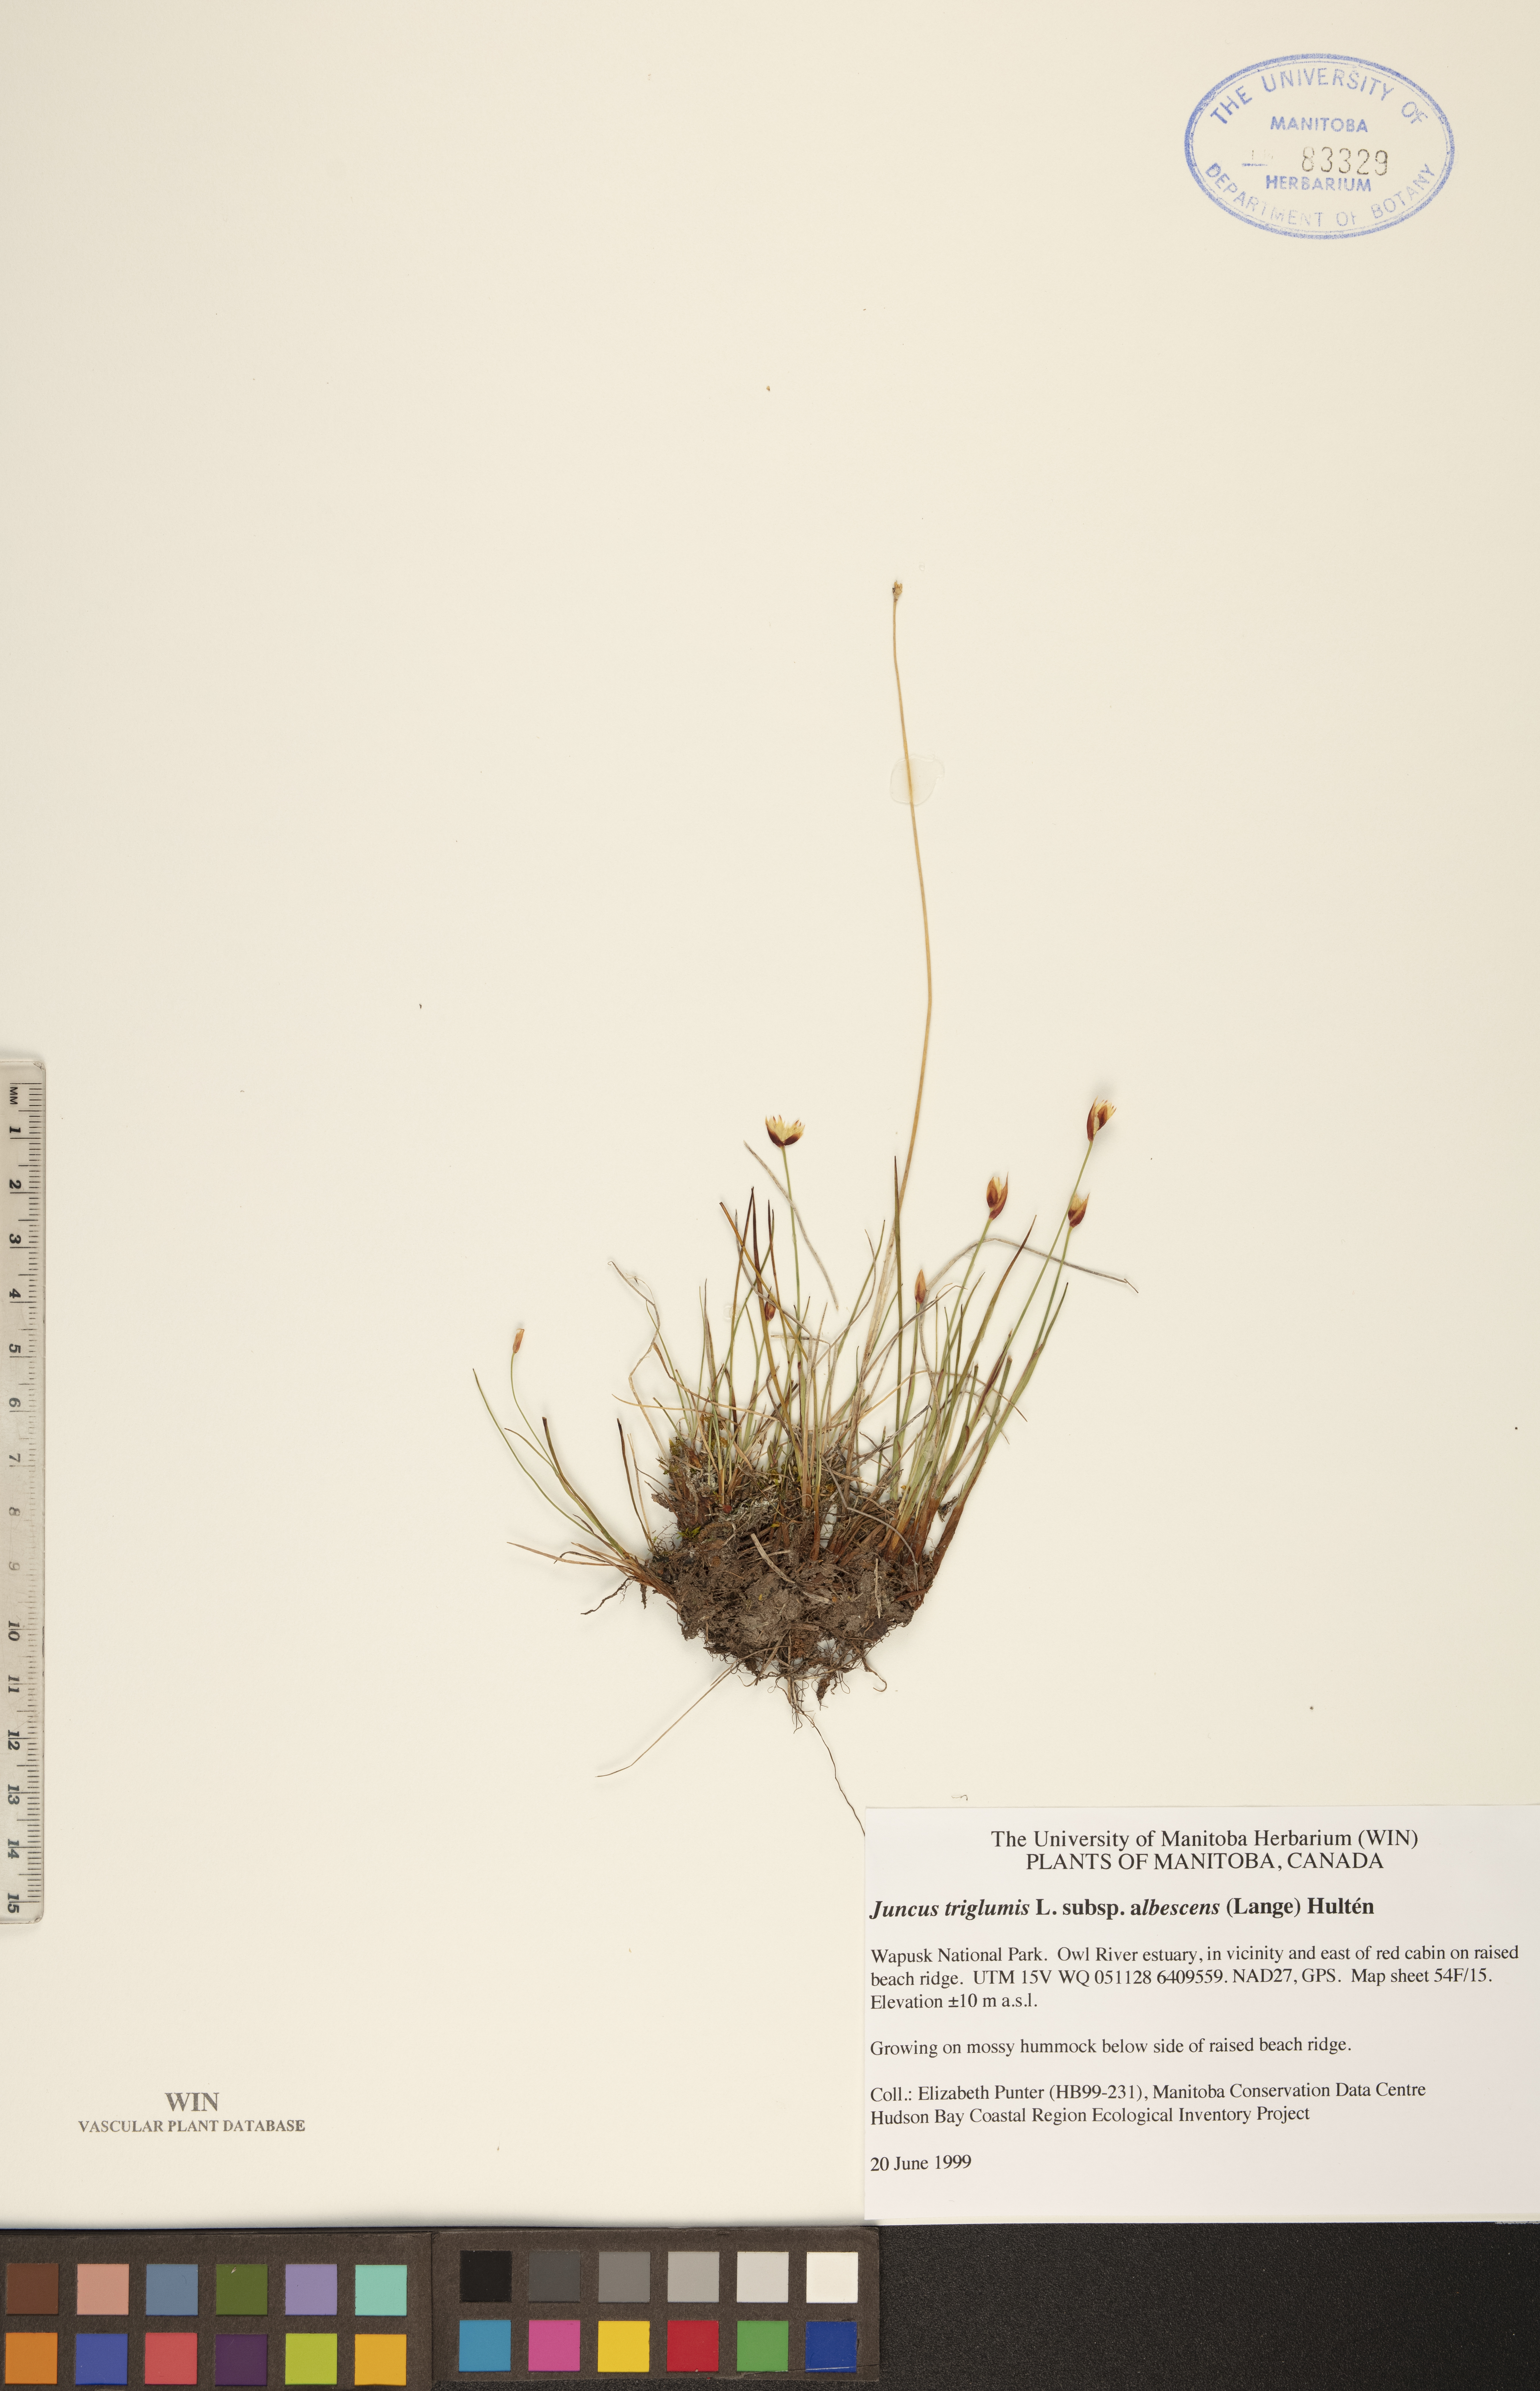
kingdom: Plantae
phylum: Tracheophyta
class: Liliopsida
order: Poales
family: Juncaceae
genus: Juncus
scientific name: Juncus albescens
